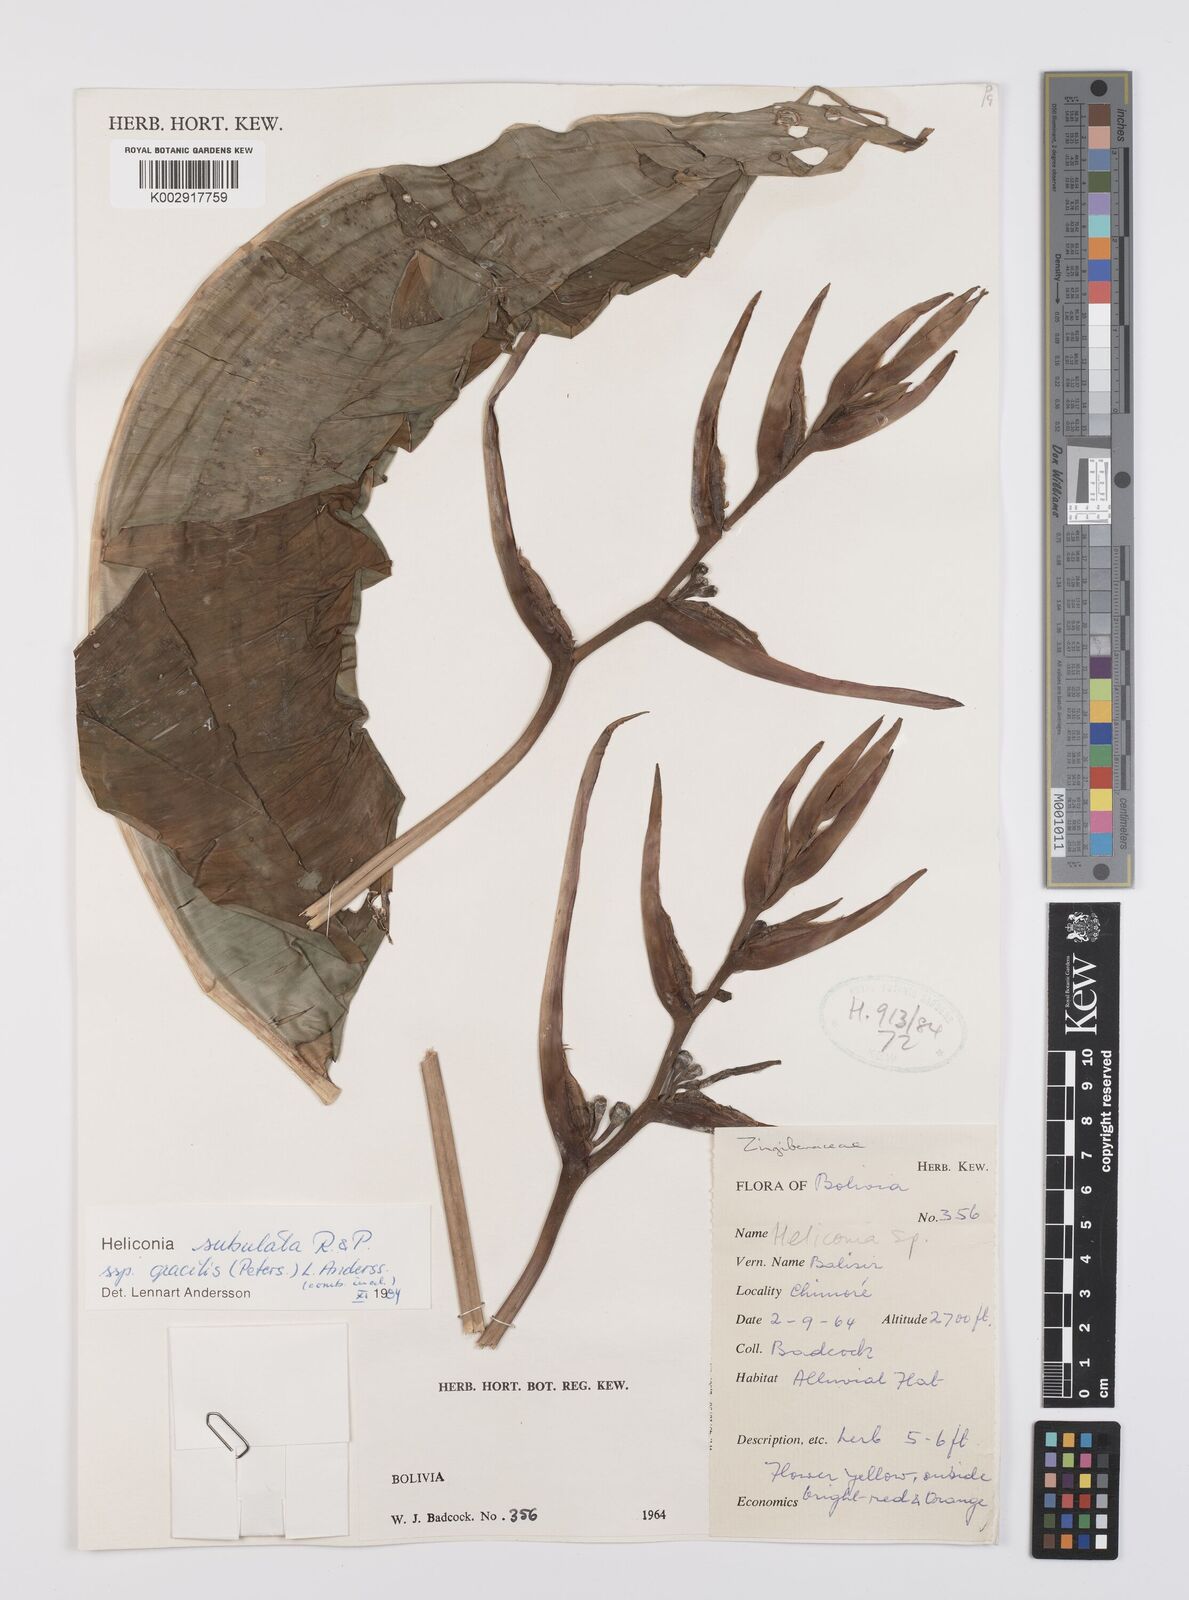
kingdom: Plantae
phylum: Tracheophyta
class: Liliopsida
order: Zingiberales
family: Heliconiaceae
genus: Heliconia
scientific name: Heliconia subulata
